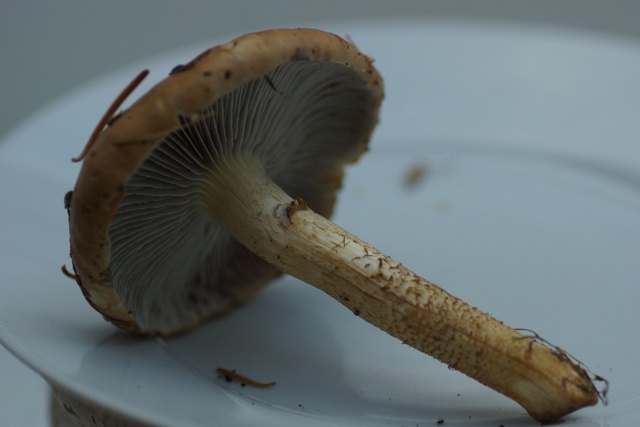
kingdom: Fungi
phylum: Basidiomycota
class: Agaricomycetes
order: Agaricales
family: Strophariaceae
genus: Stropharia
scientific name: Stropharia hornemannii
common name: nordisk bredblad
